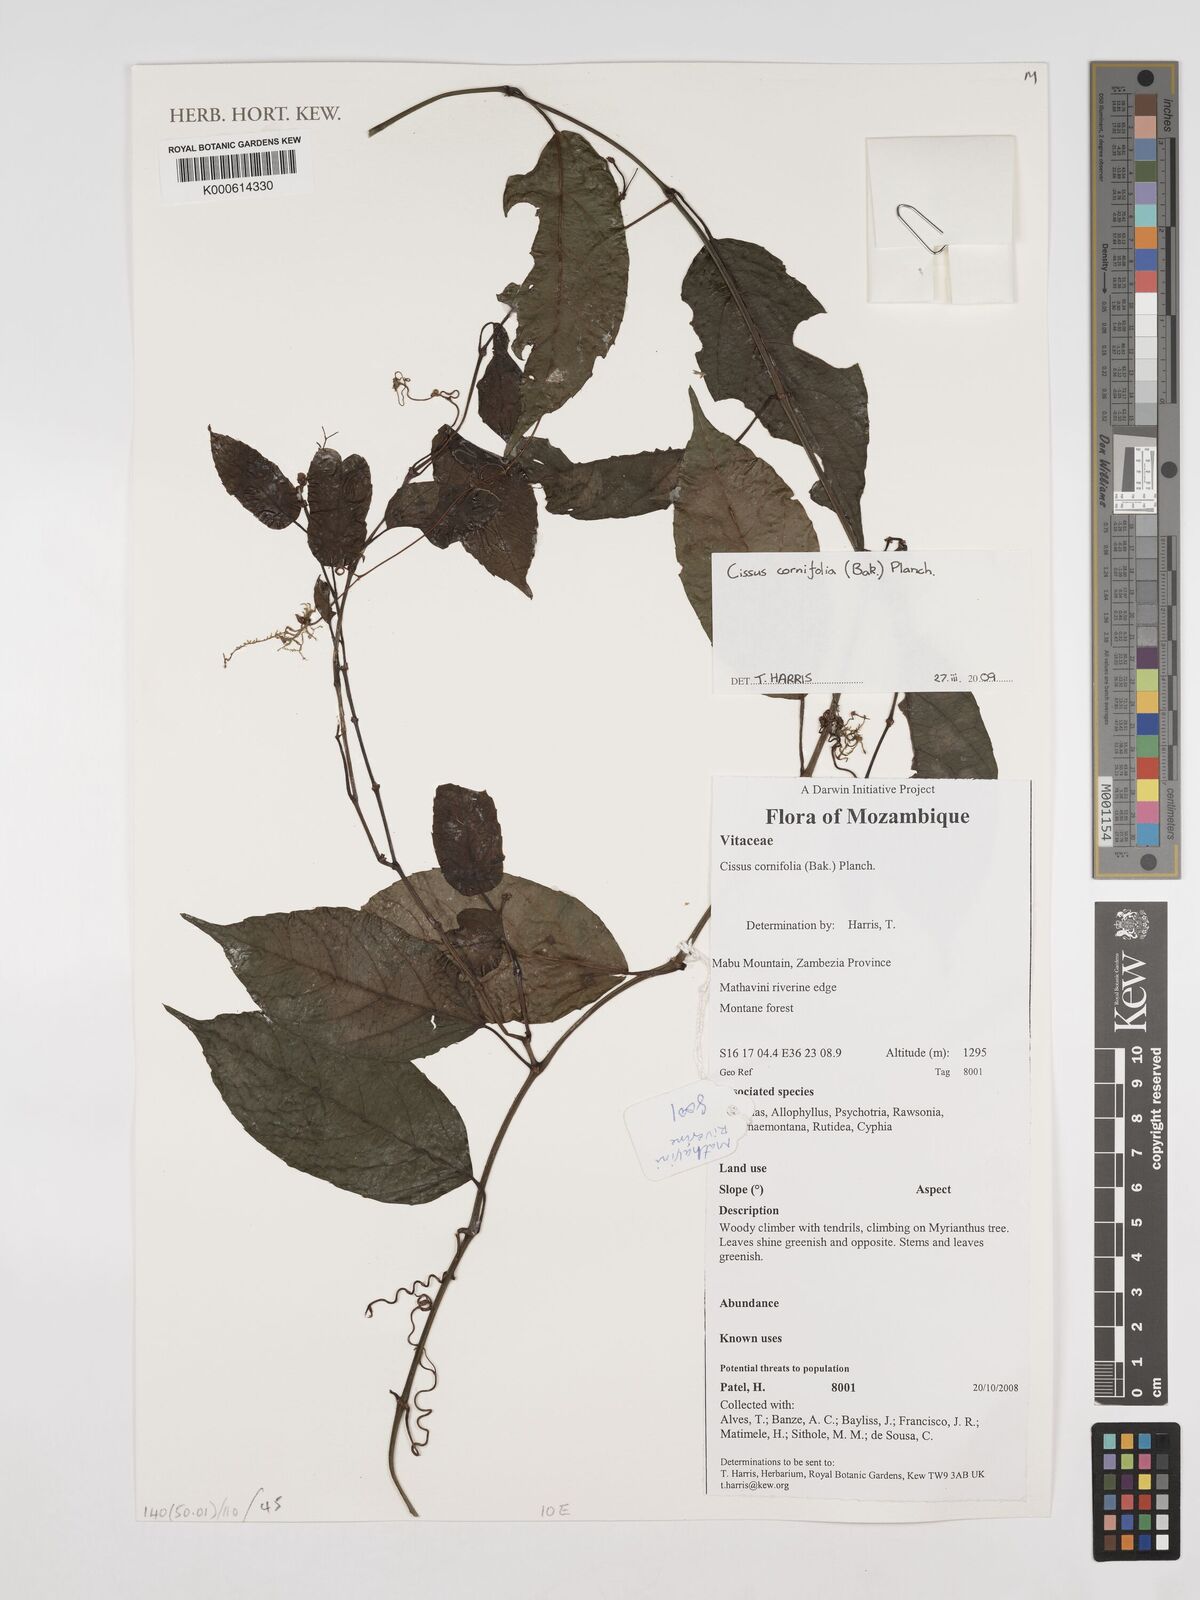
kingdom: Plantae
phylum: Tracheophyta
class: Magnoliopsida
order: Vitales
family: Vitaceae
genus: Cissus
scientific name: Cissus cornifolia
